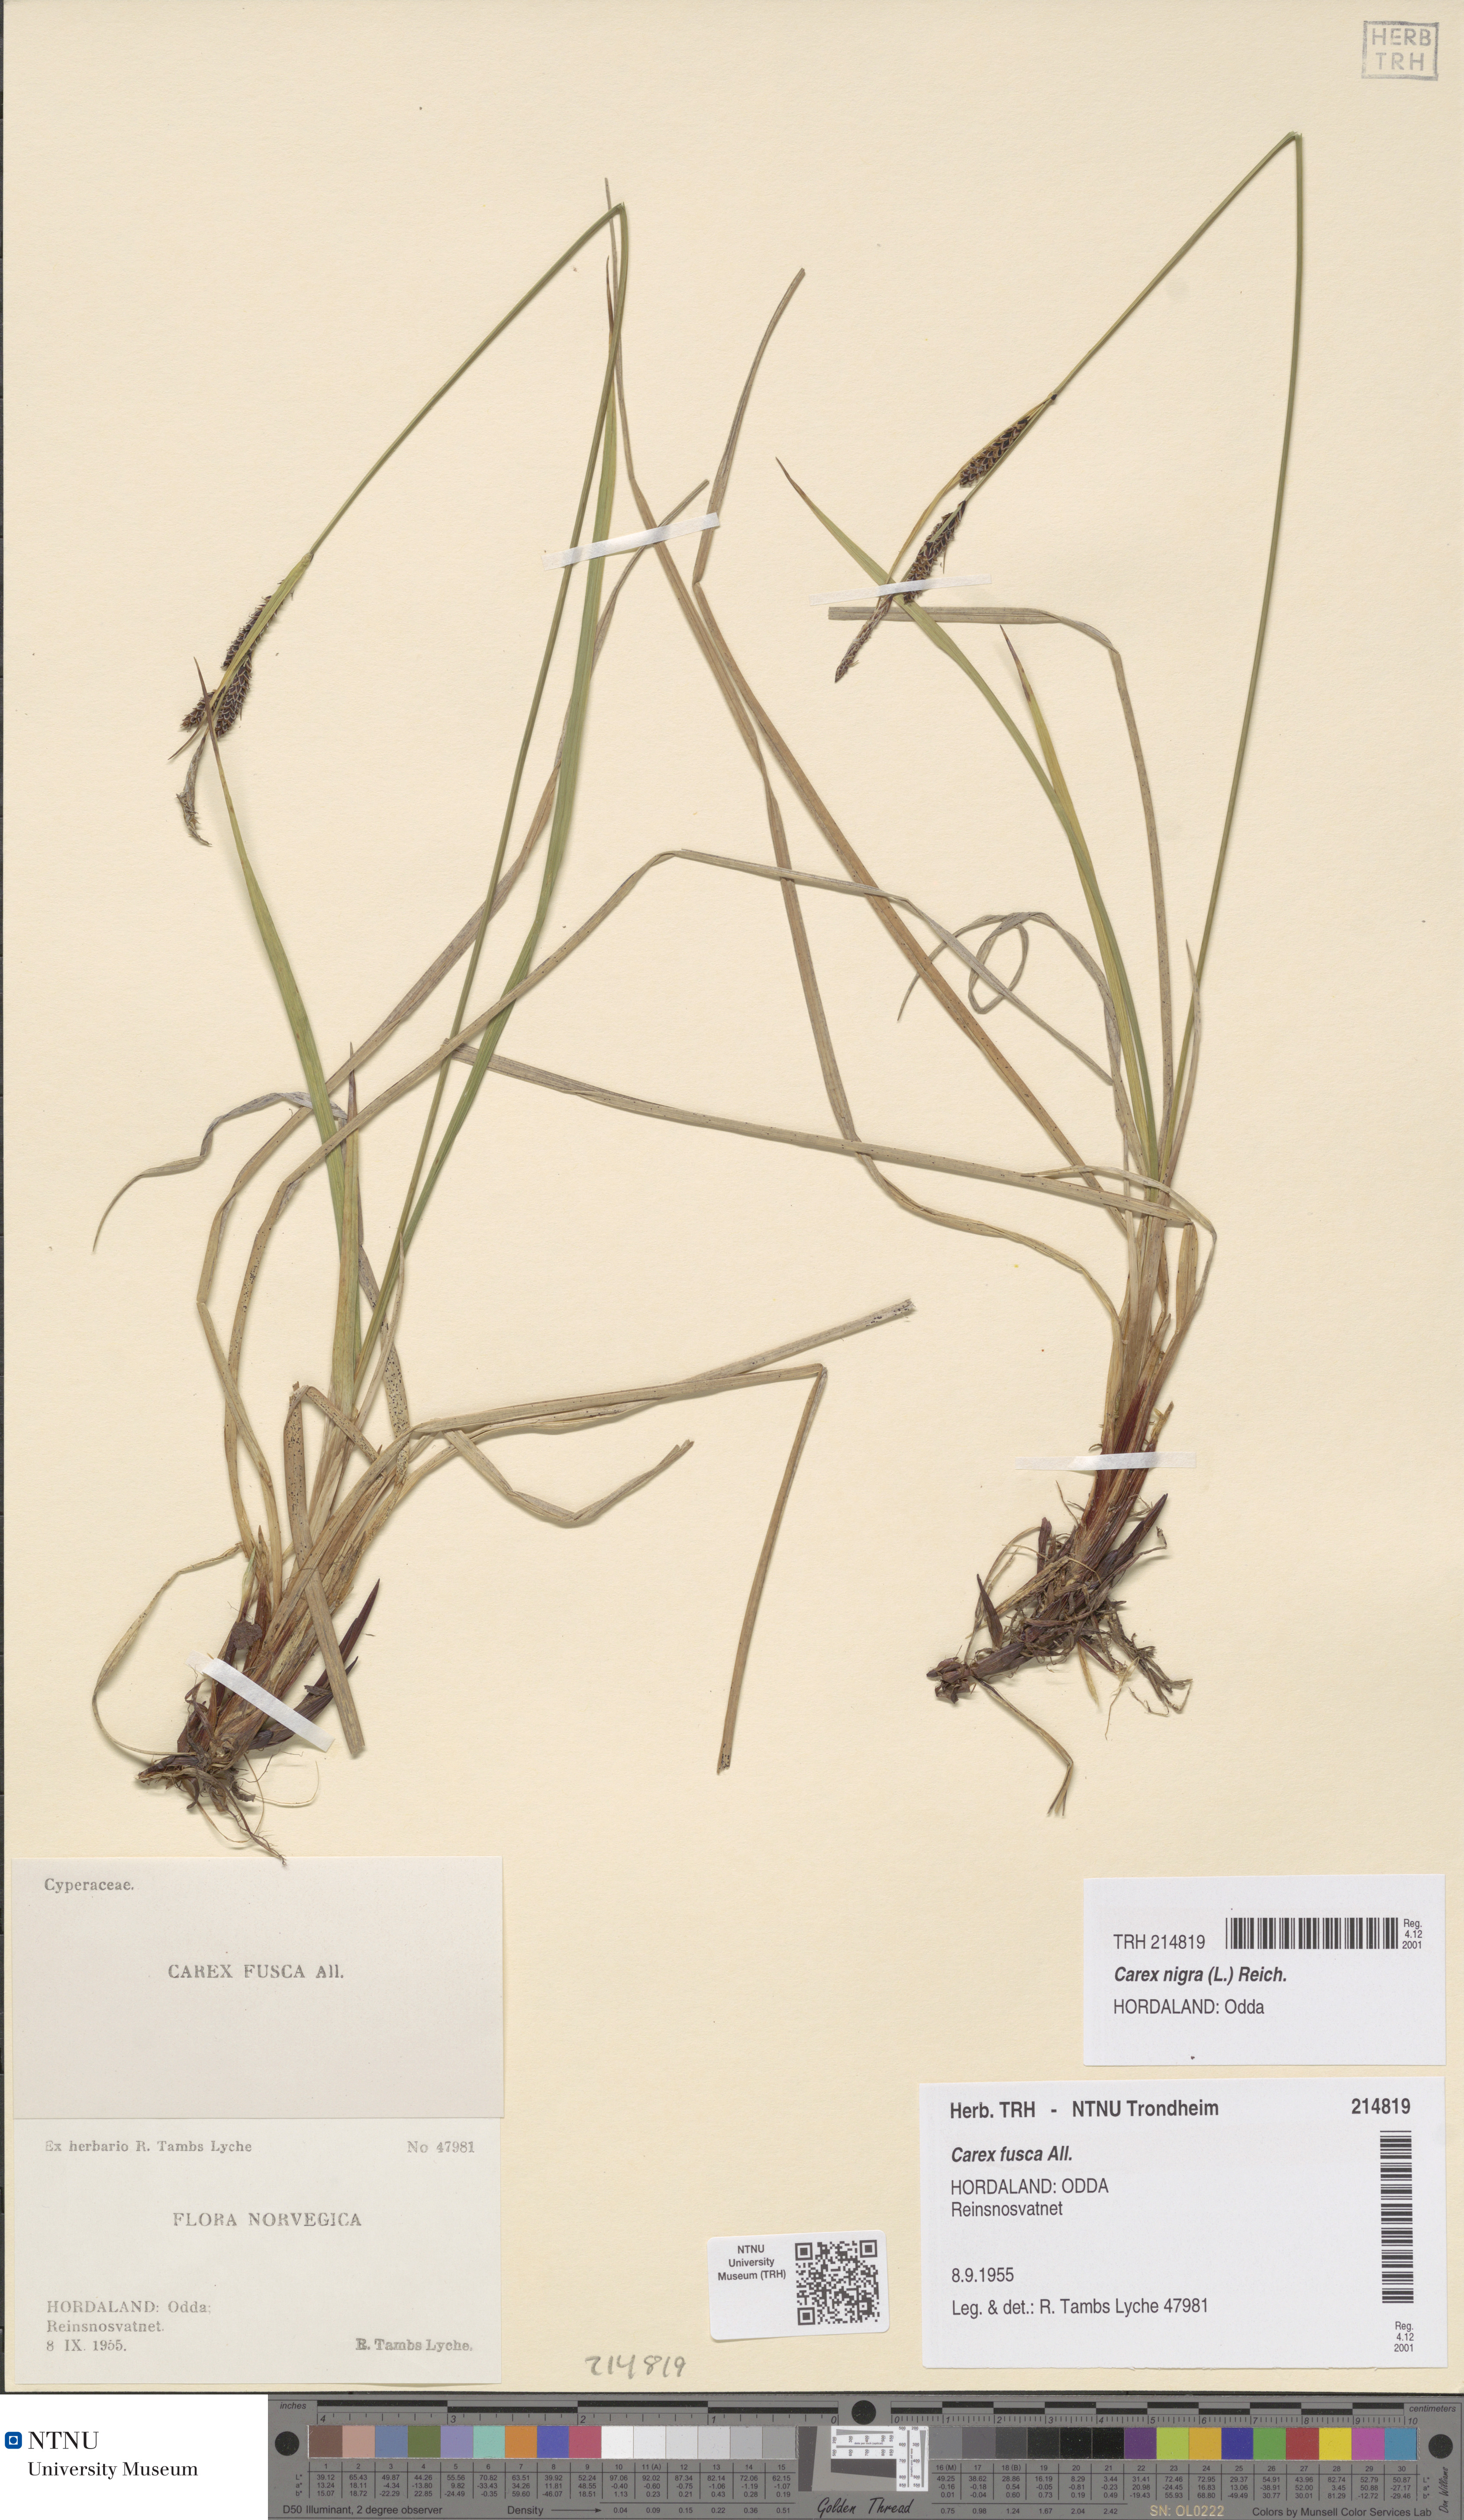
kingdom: Plantae
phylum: Tracheophyta
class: Liliopsida
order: Poales
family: Cyperaceae
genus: Carex
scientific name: Carex nigra
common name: Common sedge
